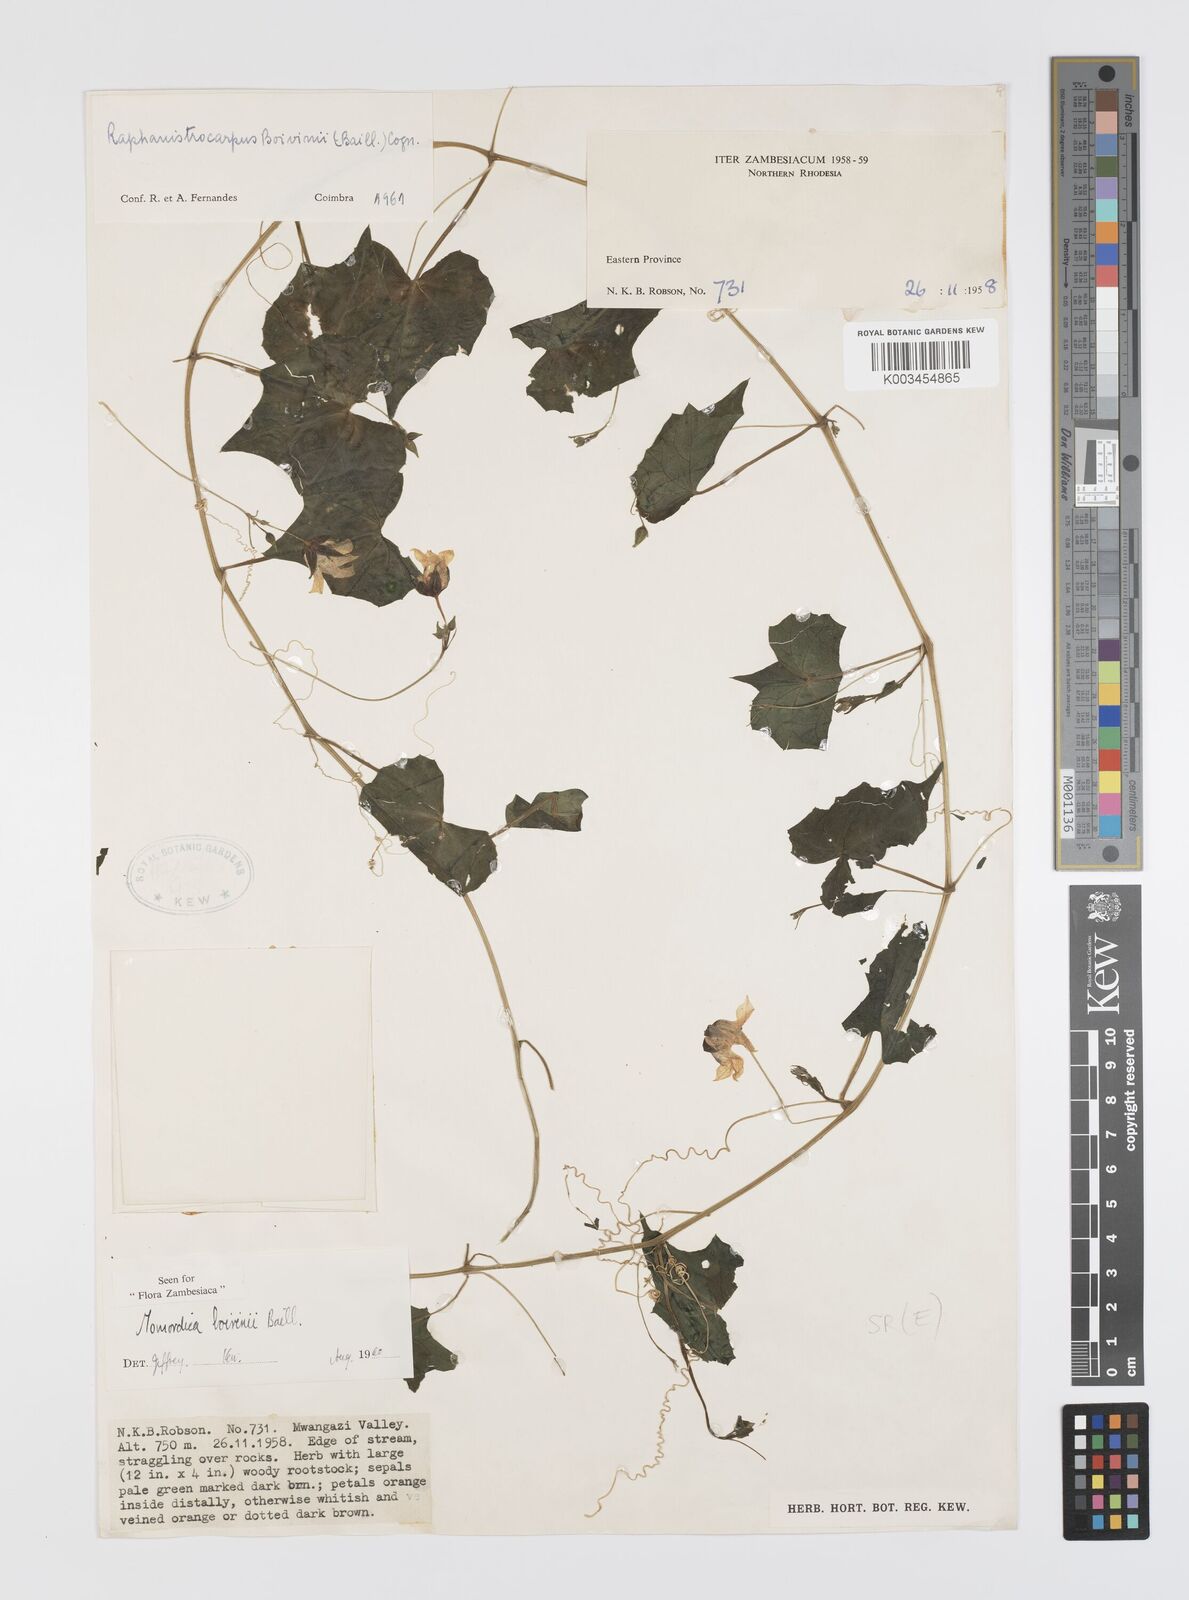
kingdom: Plantae
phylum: Tracheophyta
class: Magnoliopsida
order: Cucurbitales
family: Cucurbitaceae
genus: Momordica
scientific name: Momordica boivinii
